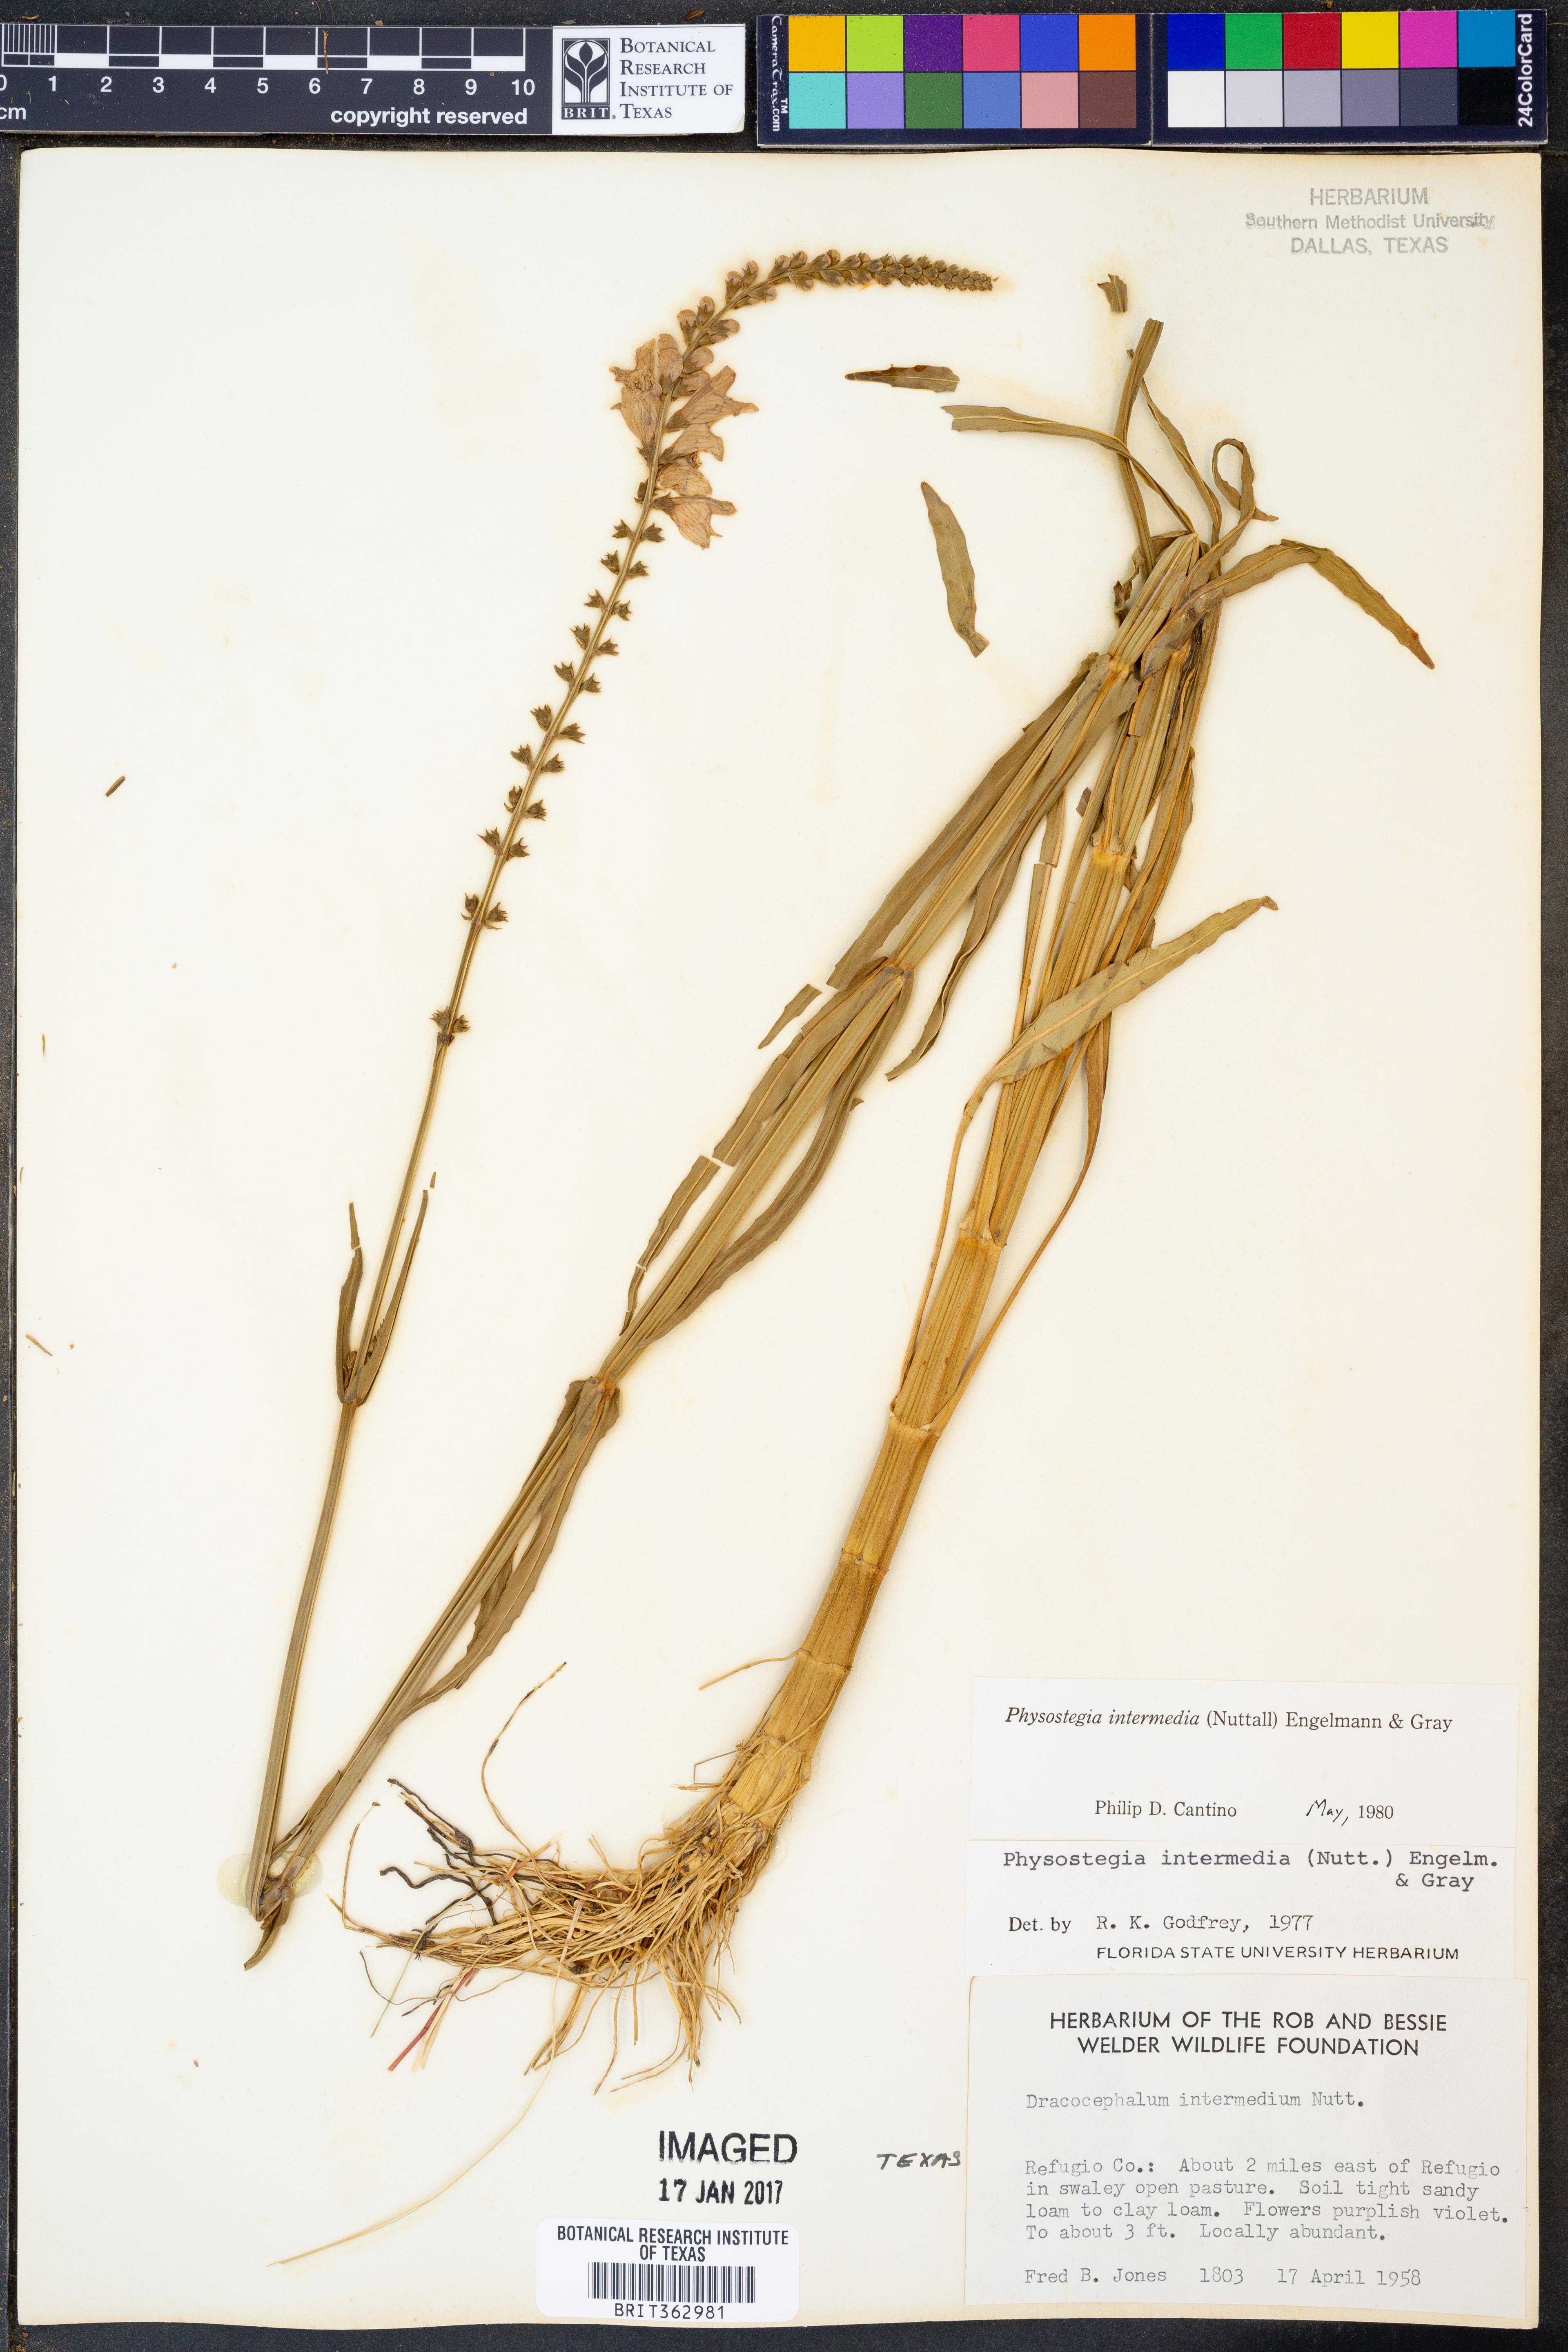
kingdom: Plantae
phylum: Tracheophyta
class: Magnoliopsida
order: Lamiales
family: Lamiaceae
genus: Physostegia
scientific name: Physostegia intermedia
